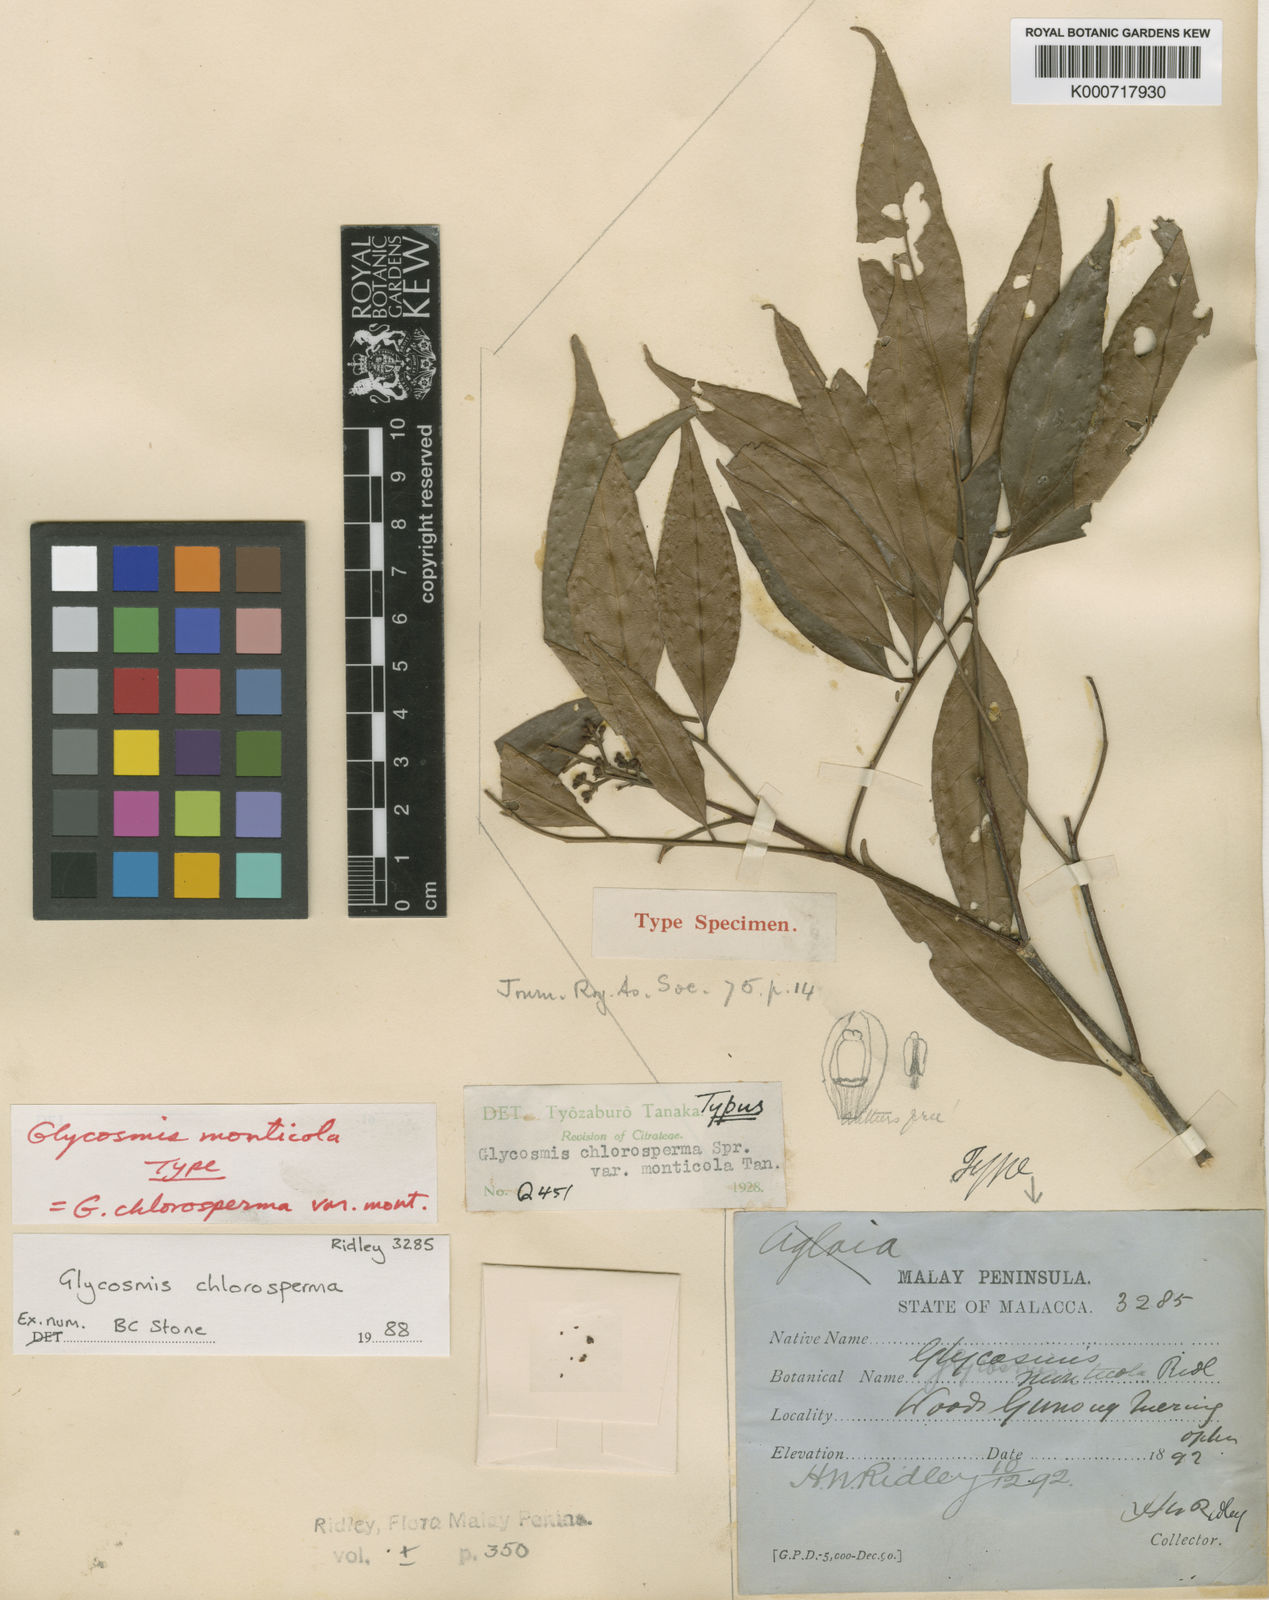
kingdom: Plantae
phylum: Tracheophyta
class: Magnoliopsida
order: Sapindales
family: Rutaceae
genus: Glycosmis
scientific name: Glycosmis chlorosperma
